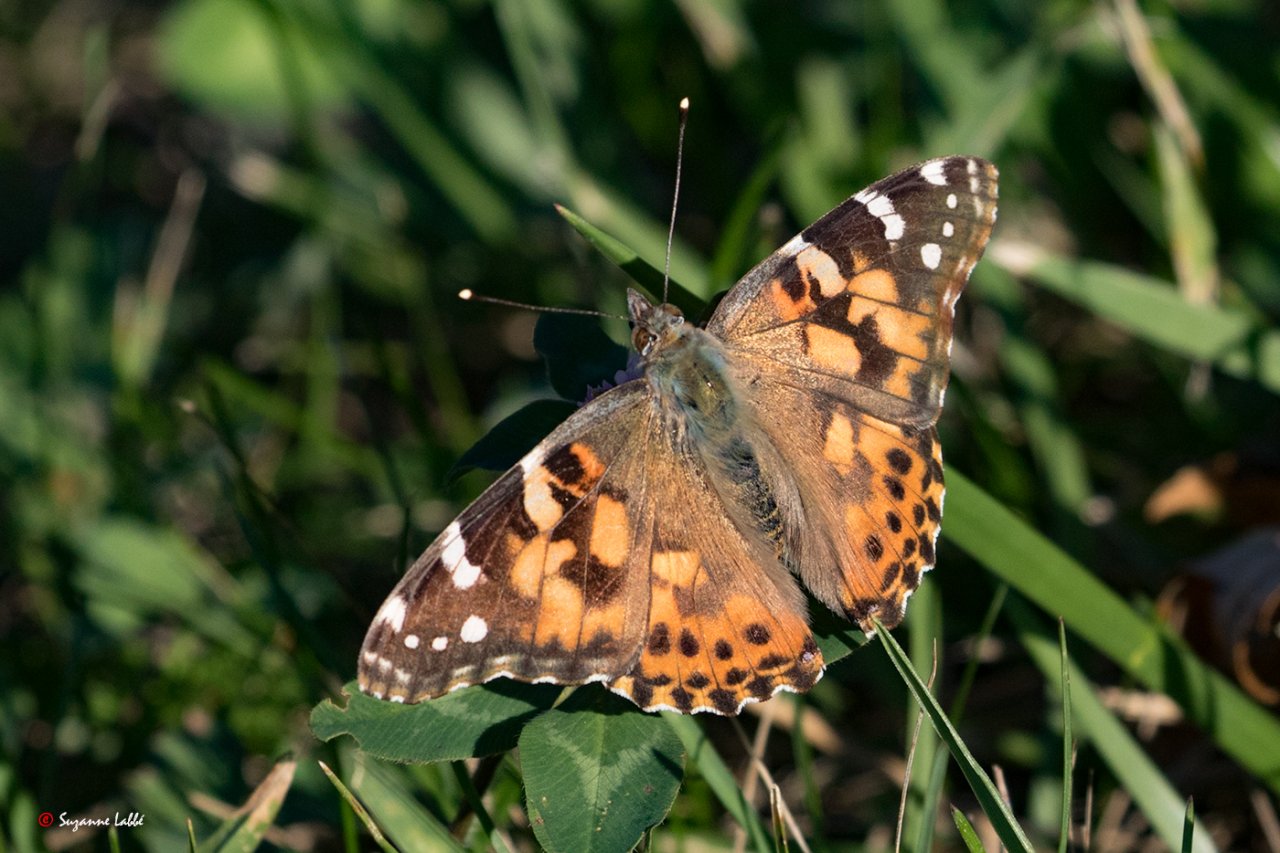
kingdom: Animalia
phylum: Arthropoda
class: Insecta
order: Lepidoptera
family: Nymphalidae
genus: Vanessa
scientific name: Vanessa cardui
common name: Painted Lady
